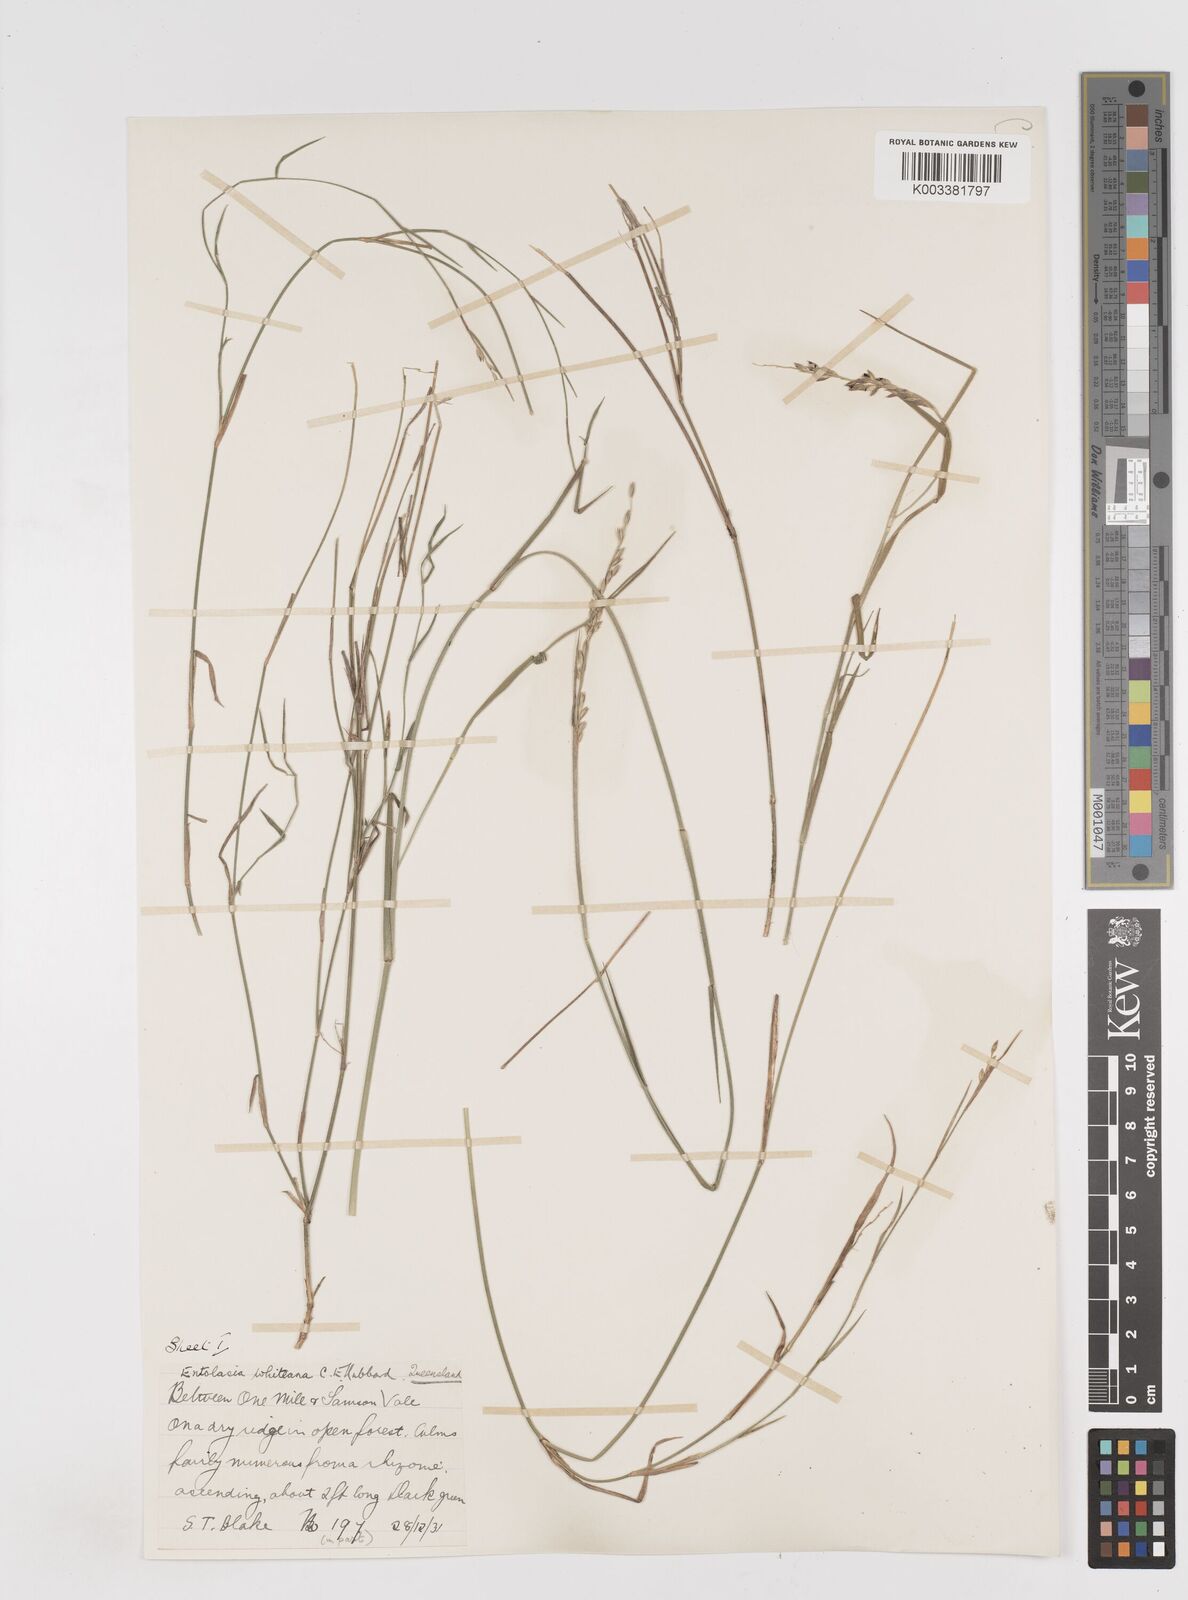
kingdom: Plantae
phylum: Tracheophyta
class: Liliopsida
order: Poales
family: Poaceae
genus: Entolasia
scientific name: Entolasia whiteana
